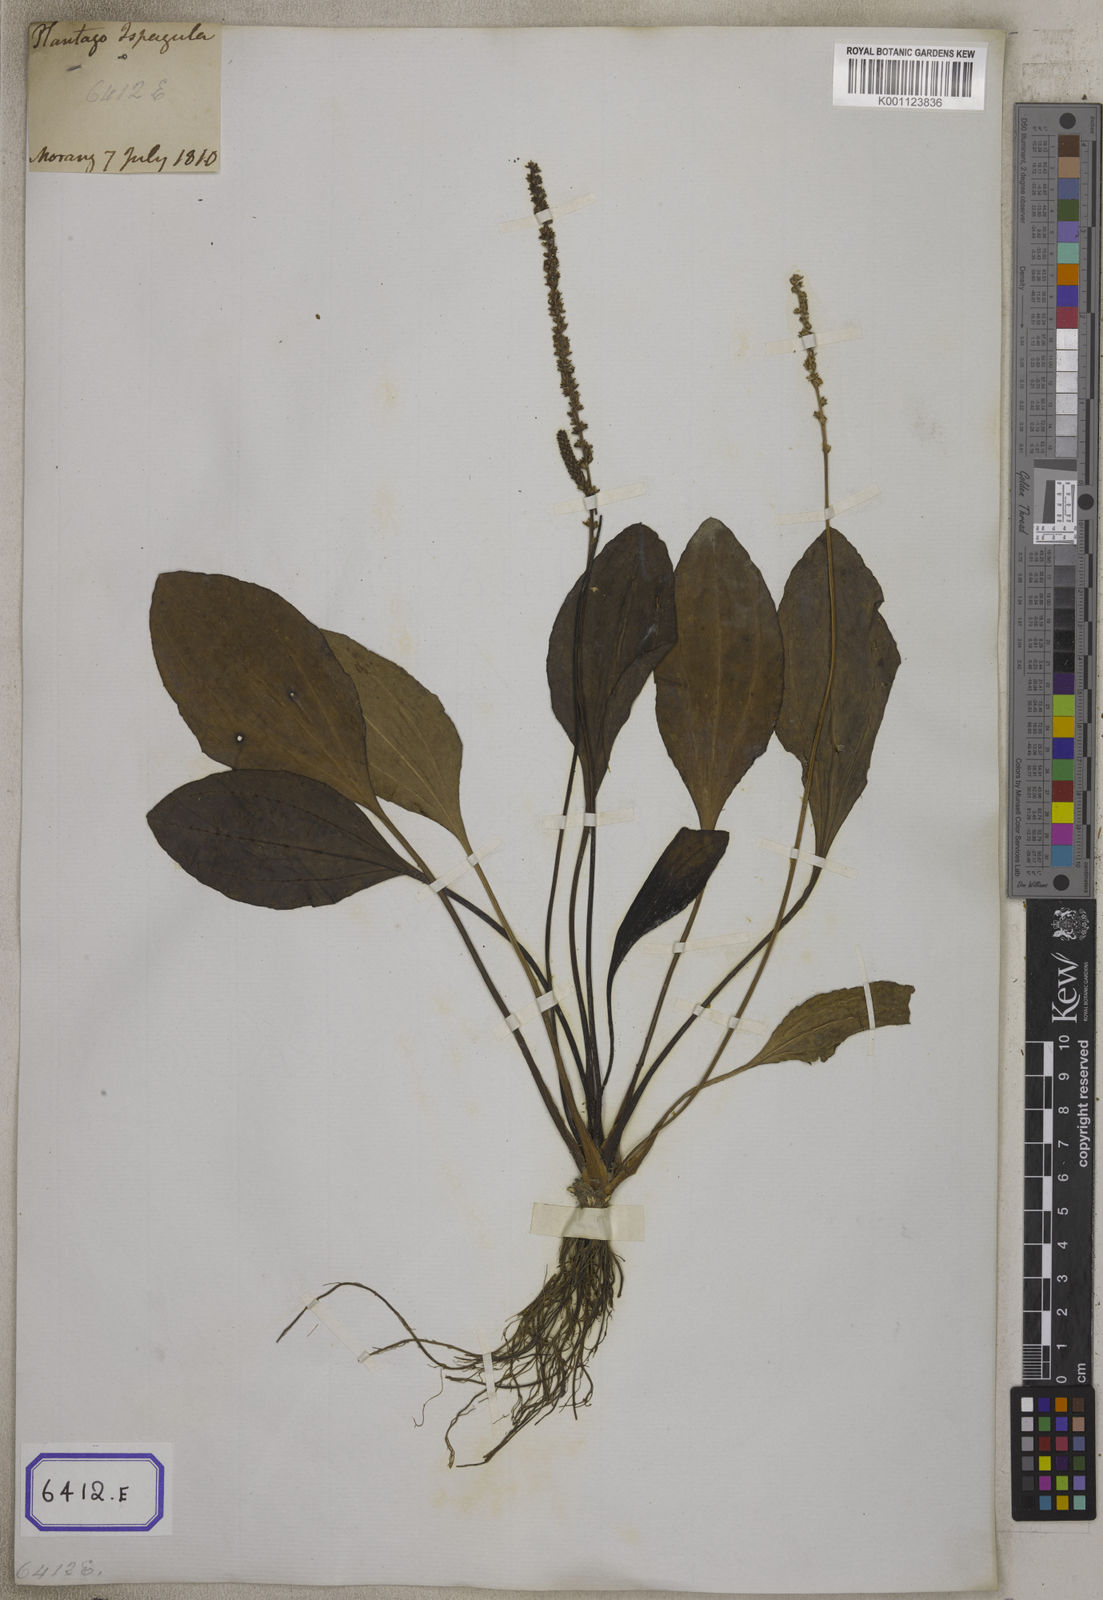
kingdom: Plantae
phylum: Tracheophyta
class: Magnoliopsida
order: Lamiales
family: Plantaginaceae
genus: Plantago
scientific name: Plantago
